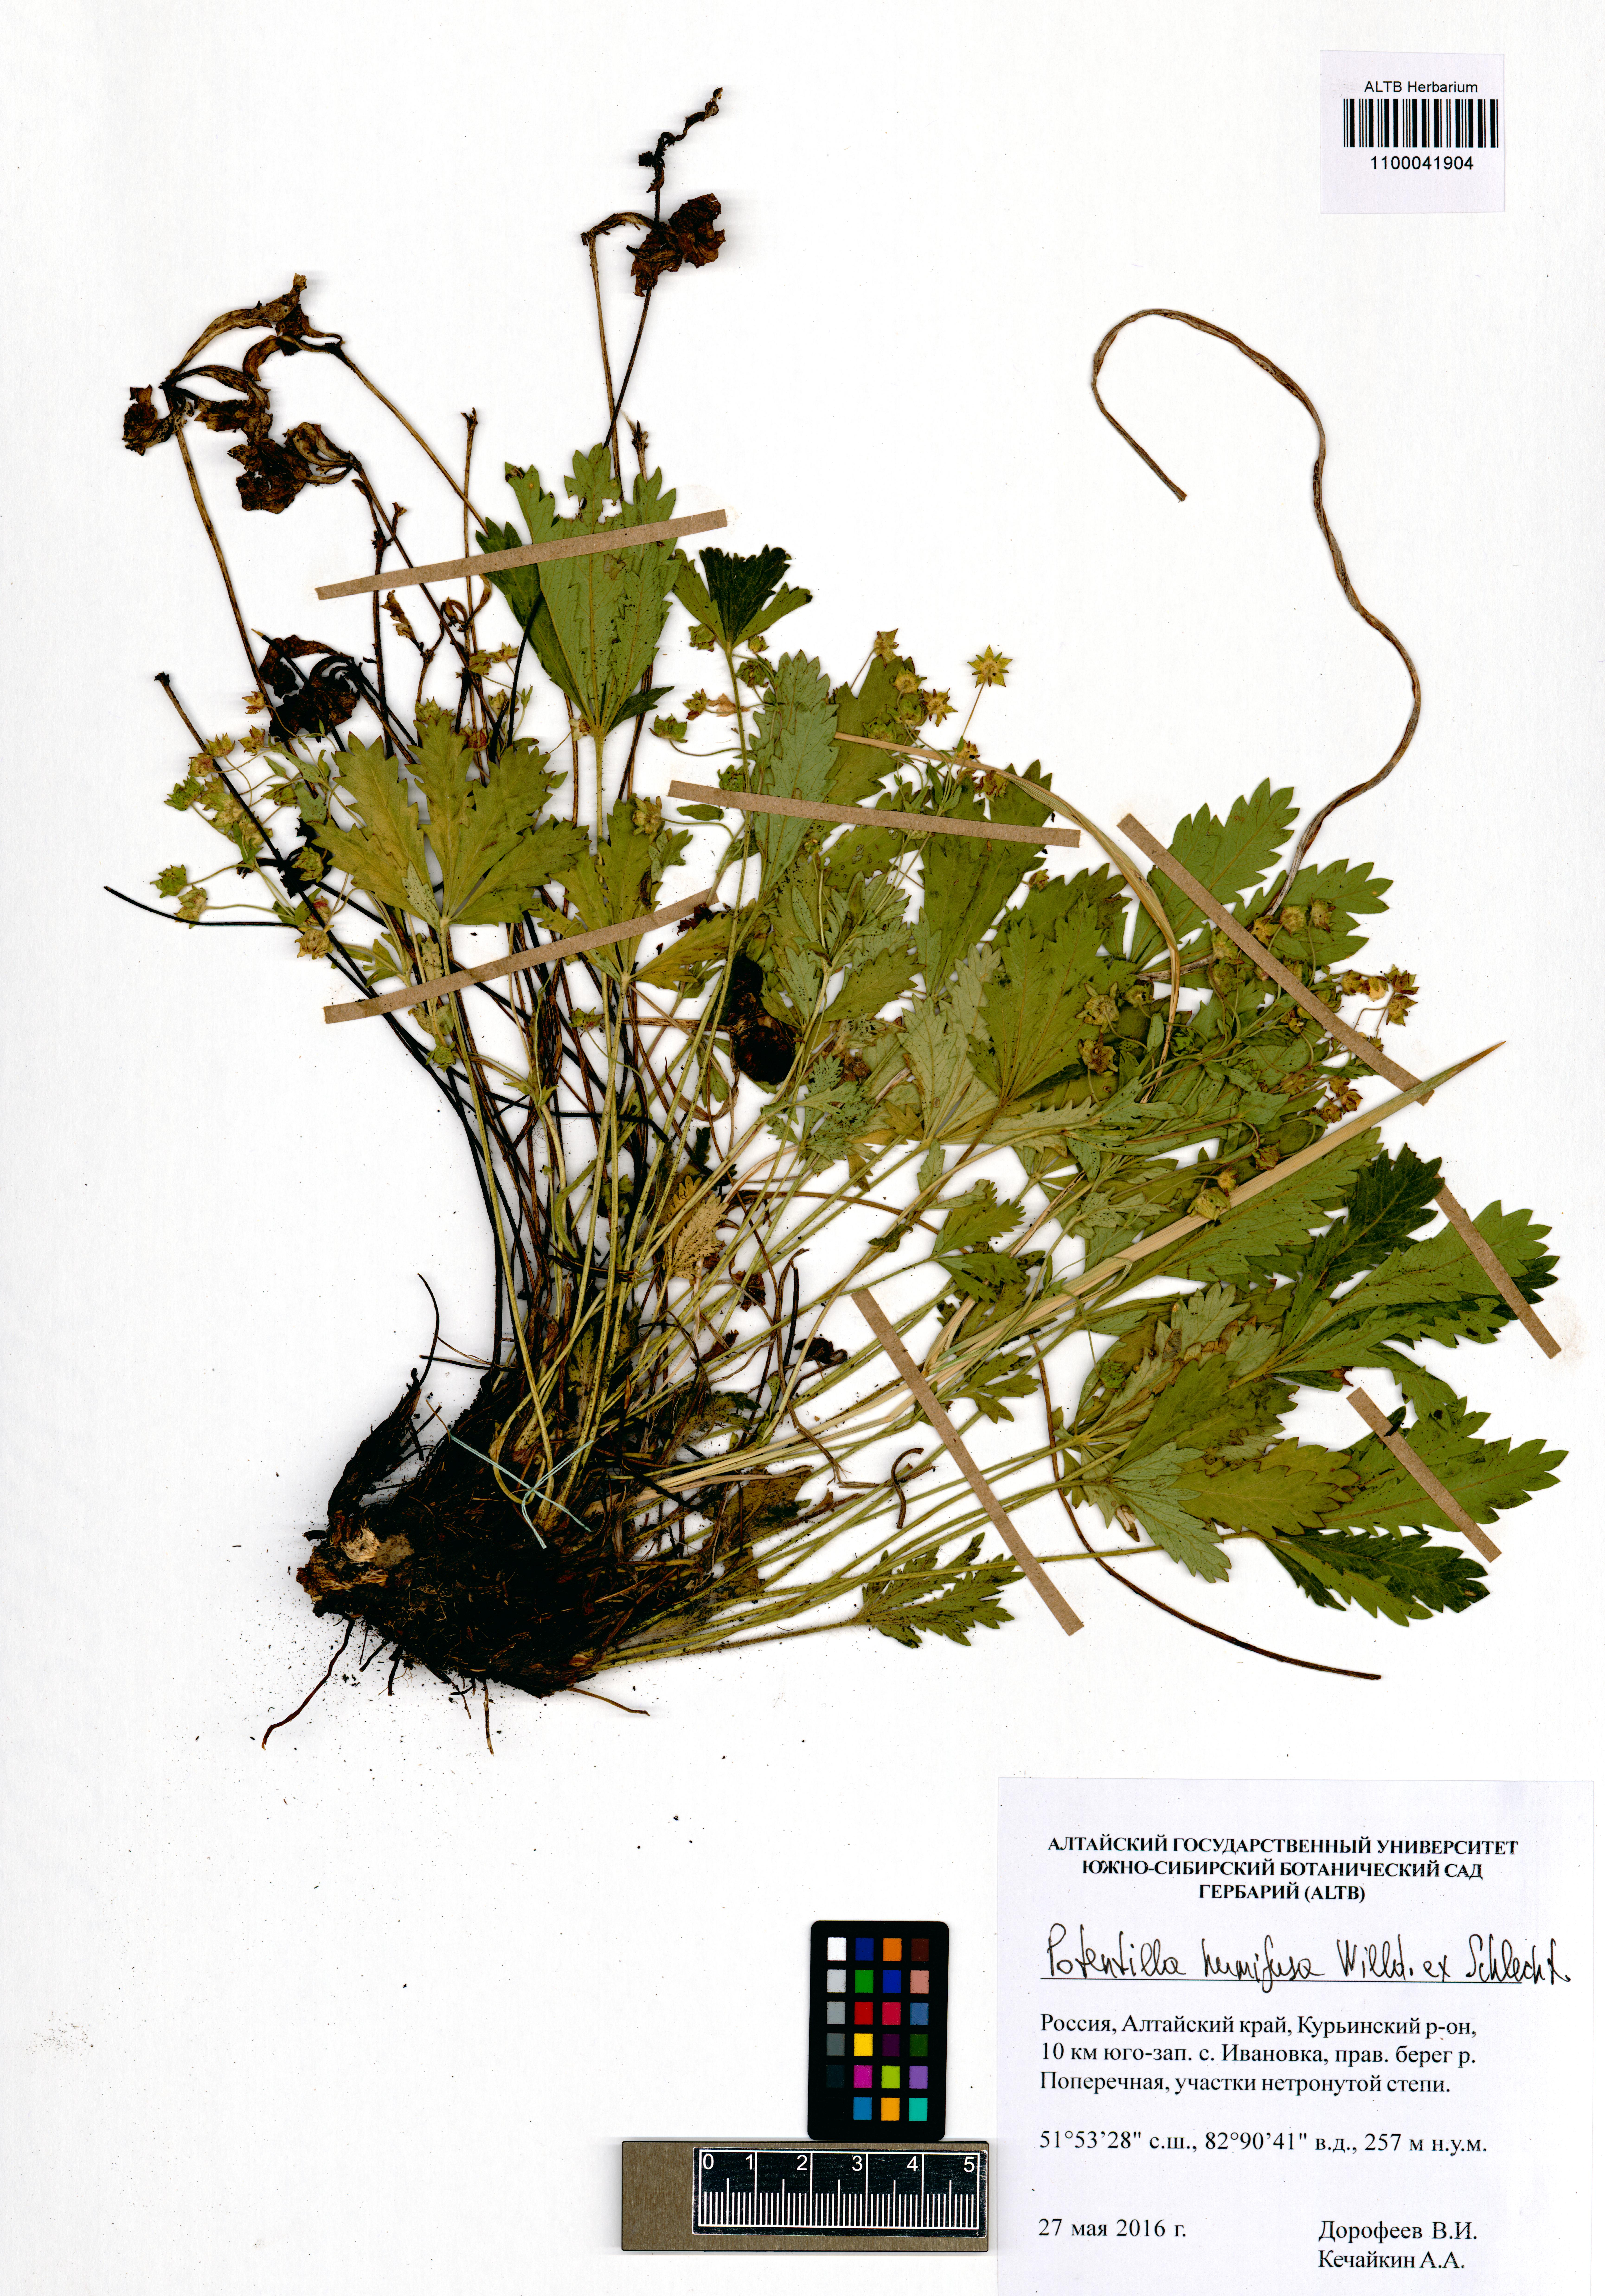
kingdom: Plantae
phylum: Tracheophyta
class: Magnoliopsida
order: Rosales
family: Rosaceae
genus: Potentilla
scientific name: Potentilla humifusa
